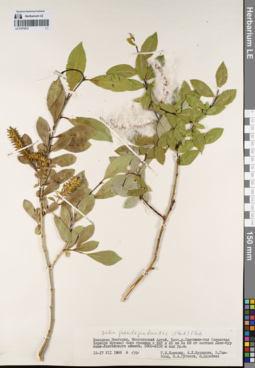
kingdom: Plantae
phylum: Tracheophyta
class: Magnoliopsida
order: Malpighiales
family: Salicaceae
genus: Salix
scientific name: Salix pseudopentandra
